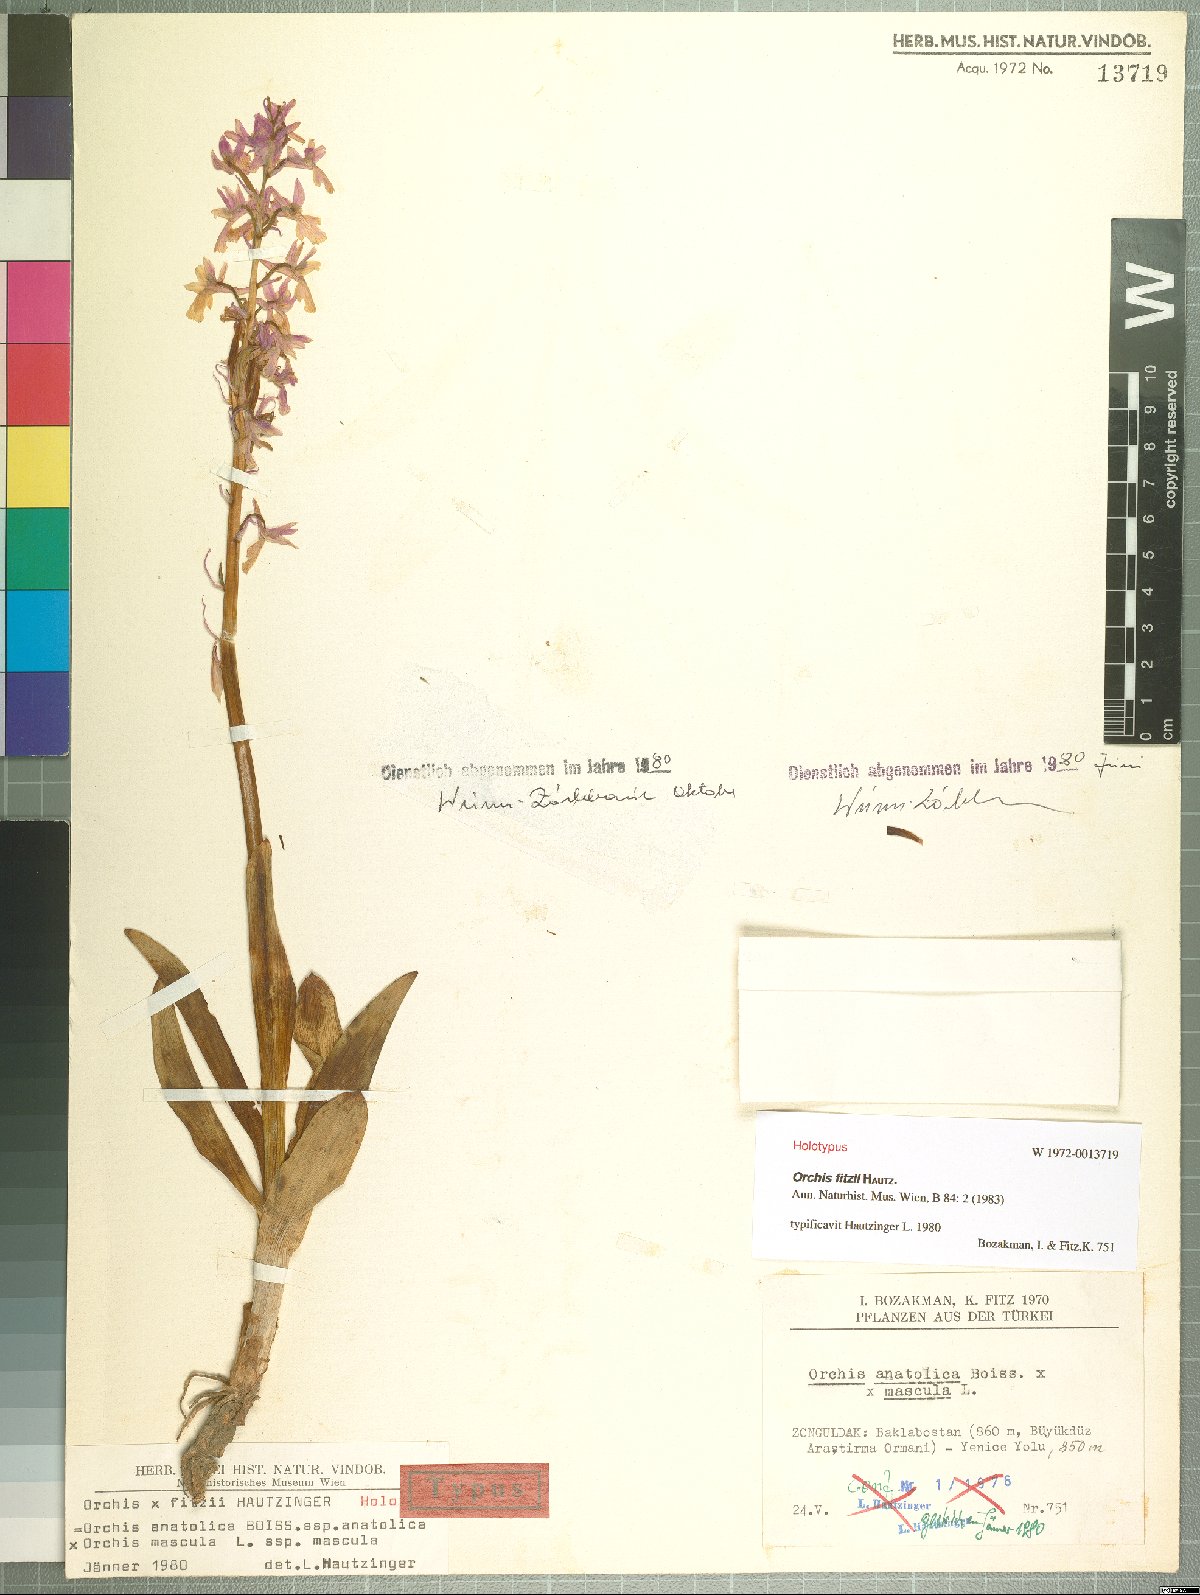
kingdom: Plantae
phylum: Tracheophyta
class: Liliopsida
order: Asparagales
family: Orchidaceae
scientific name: Orchidaceae
